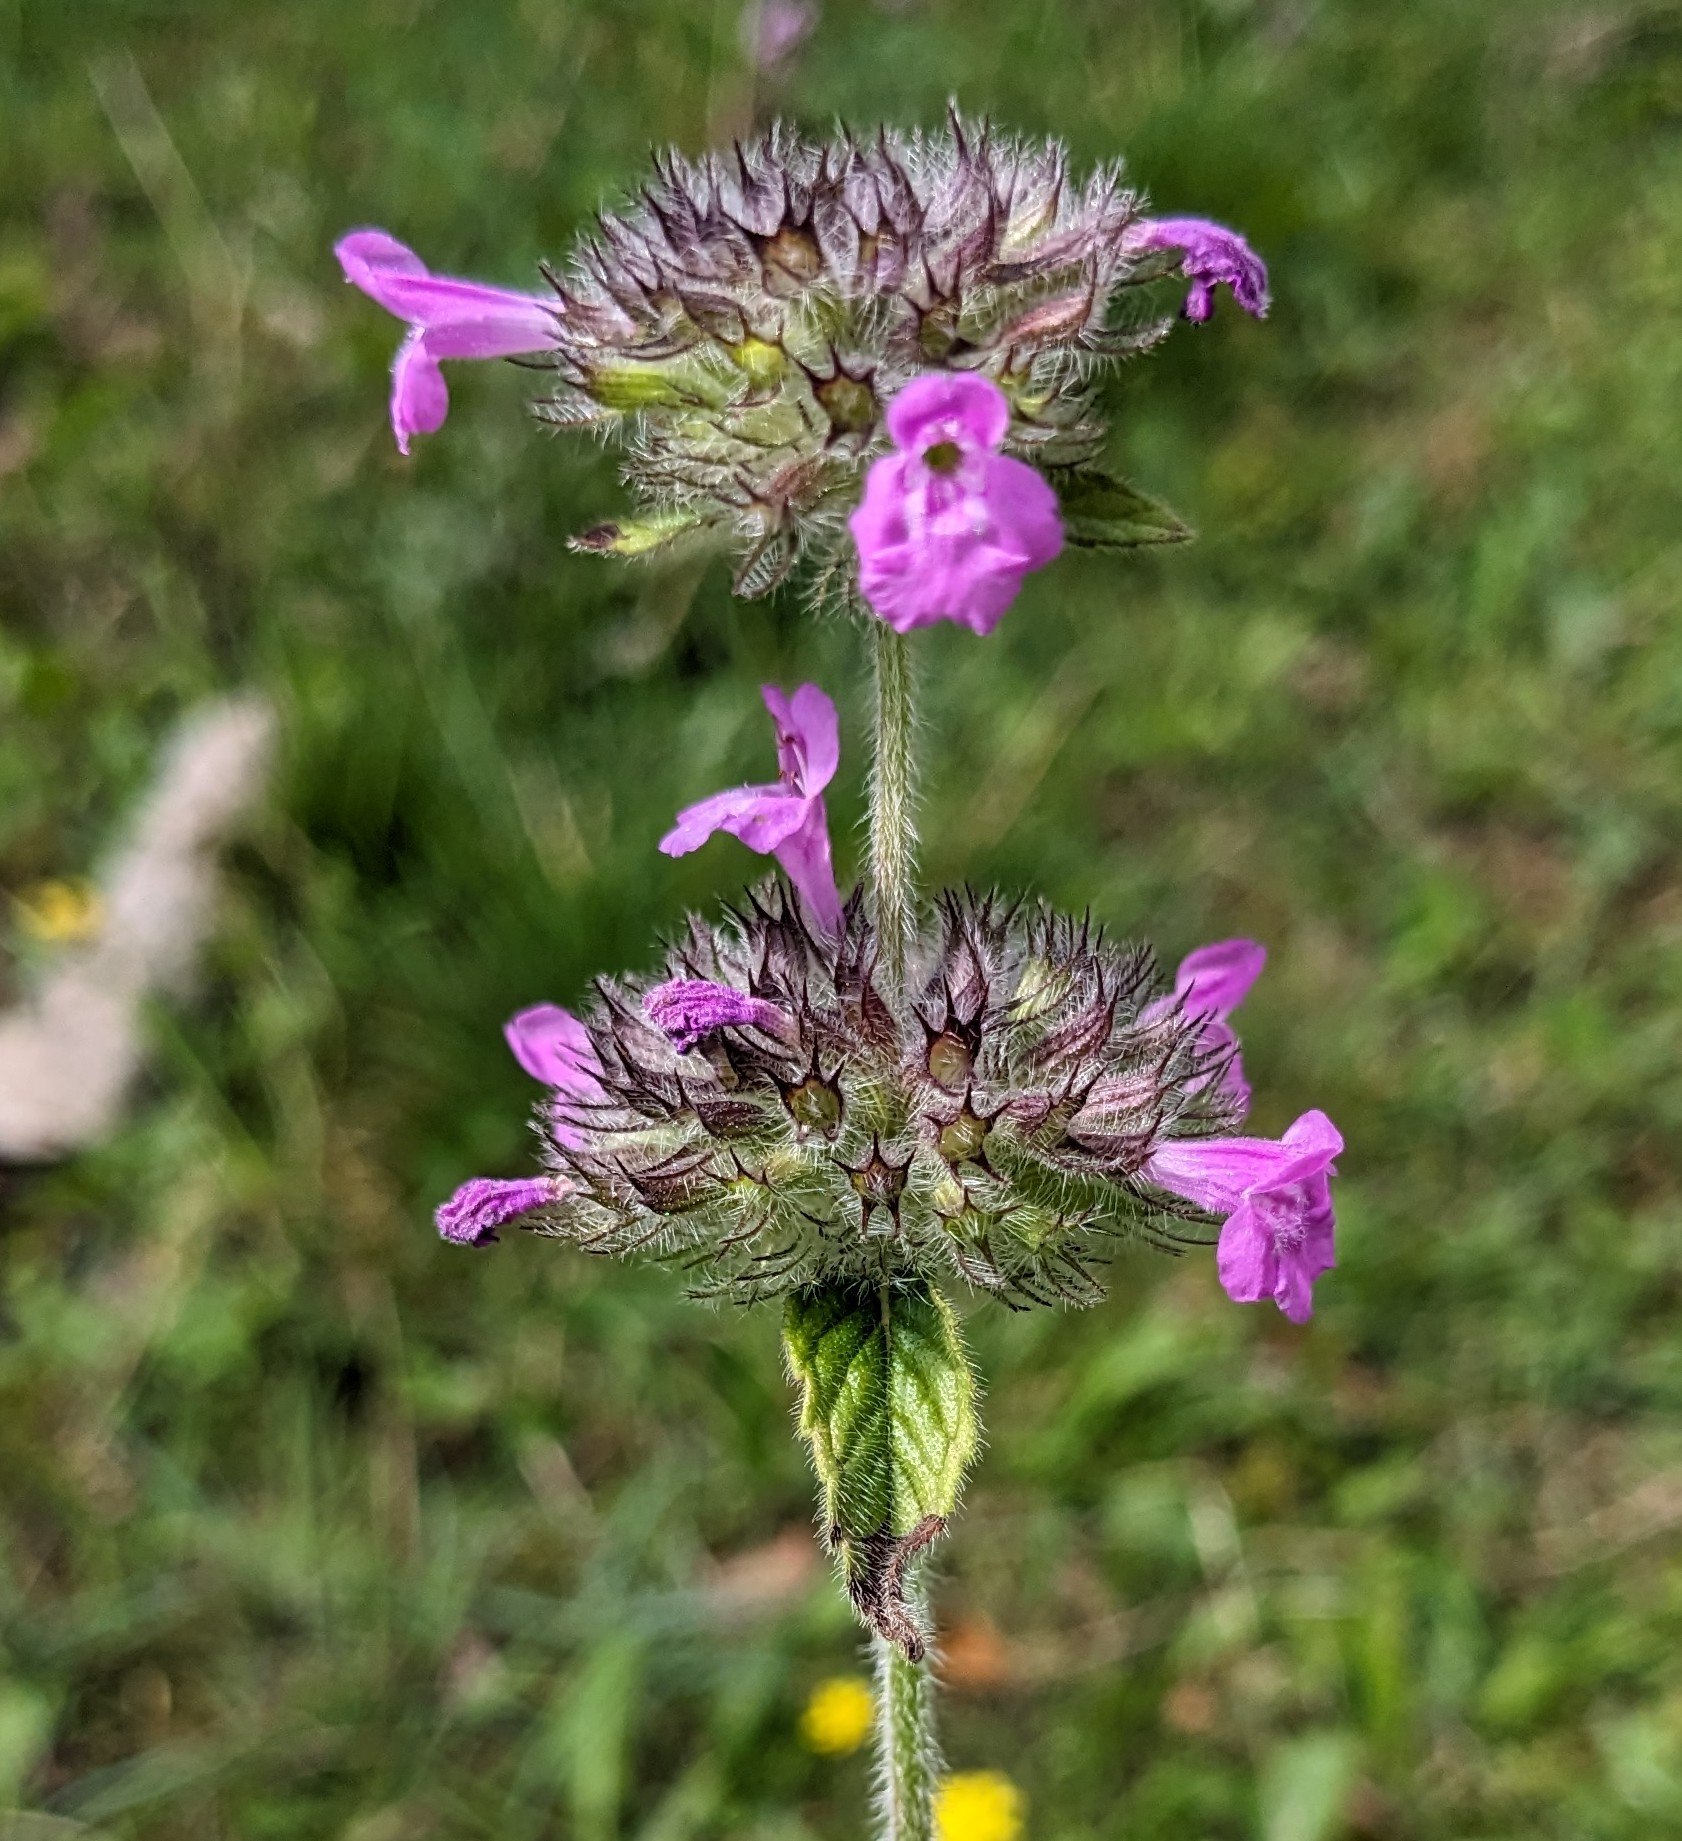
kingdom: Plantae
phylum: Tracheophyta
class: Magnoliopsida
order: Lamiales
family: Lamiaceae
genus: Clinopodium
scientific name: Clinopodium vulgare
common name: Kransbørste
